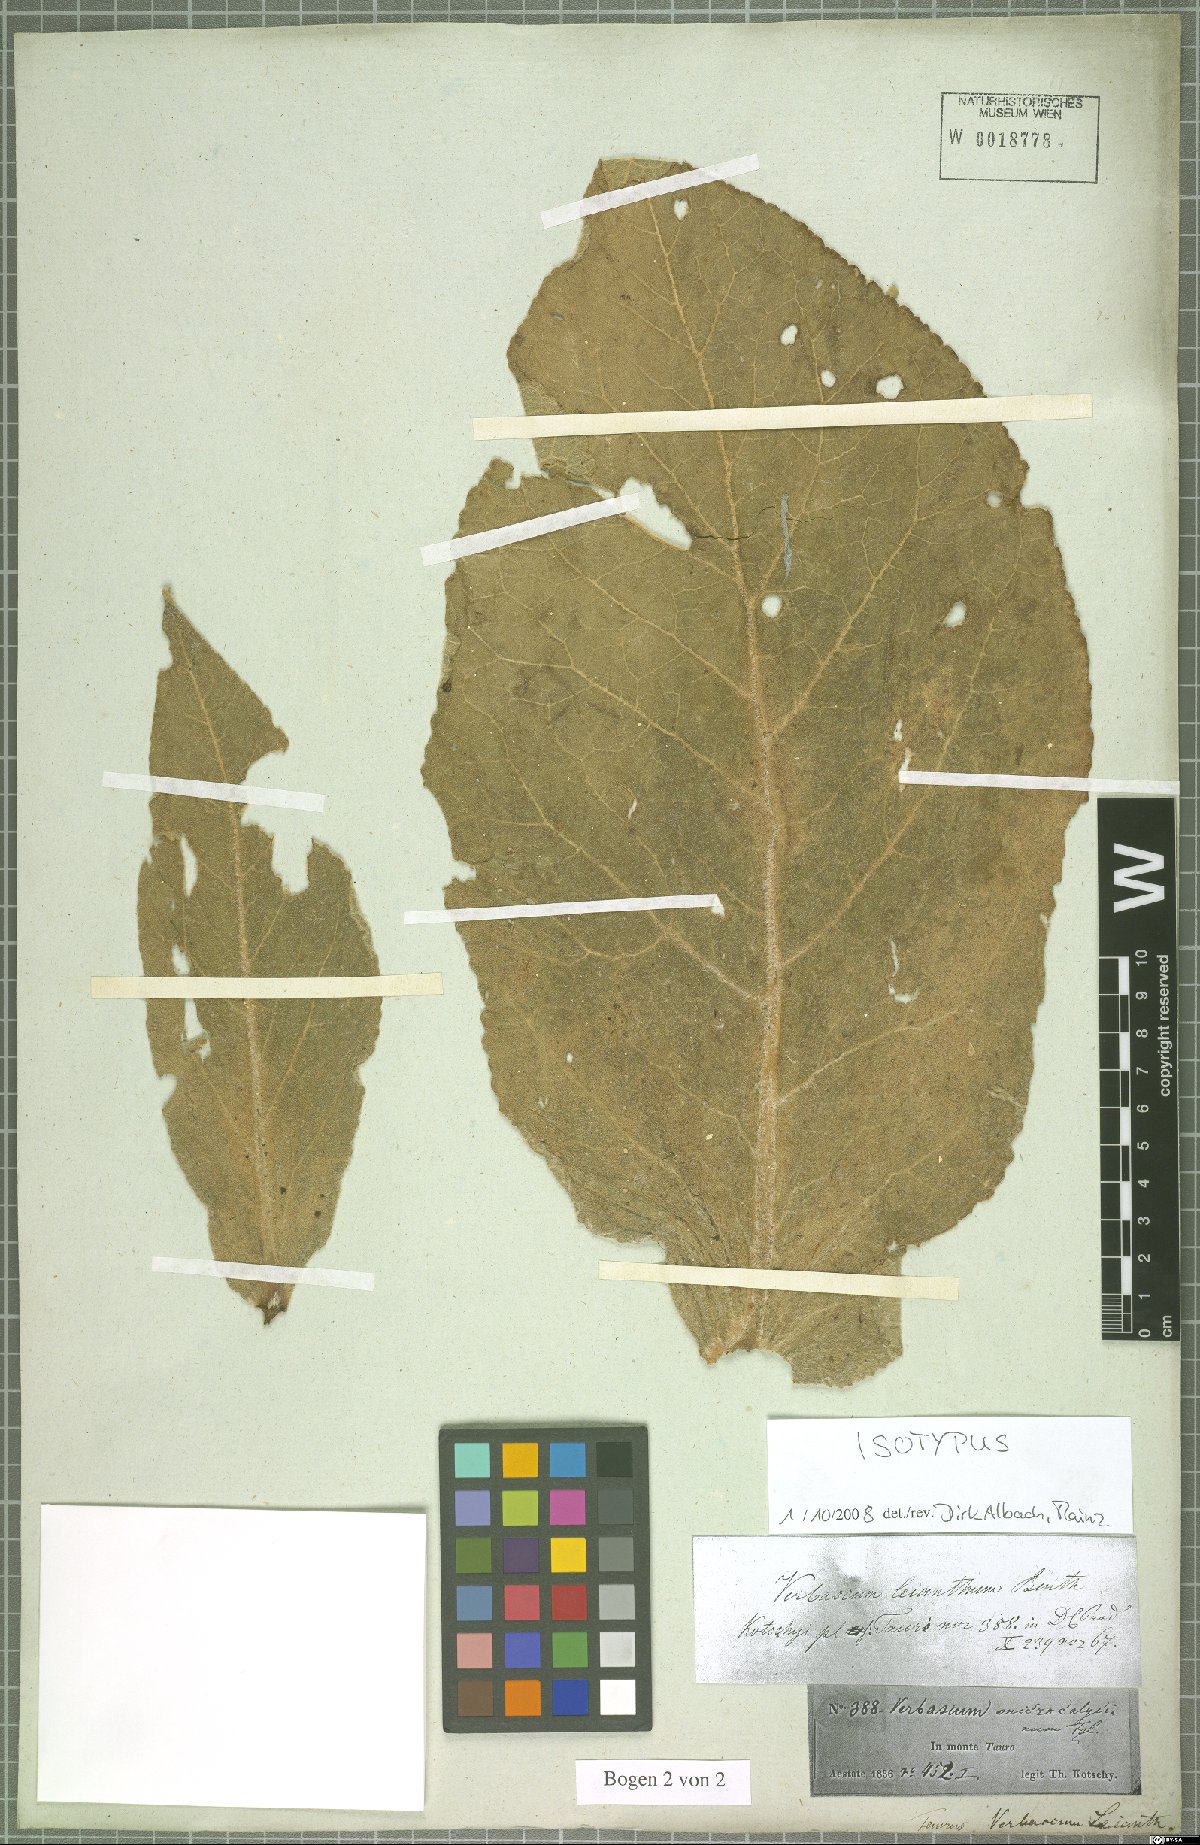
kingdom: Plantae
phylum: Tracheophyta
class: Magnoliopsida
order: Lamiales
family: Scrophulariaceae
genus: Verbascum
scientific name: Verbascum leianthum
